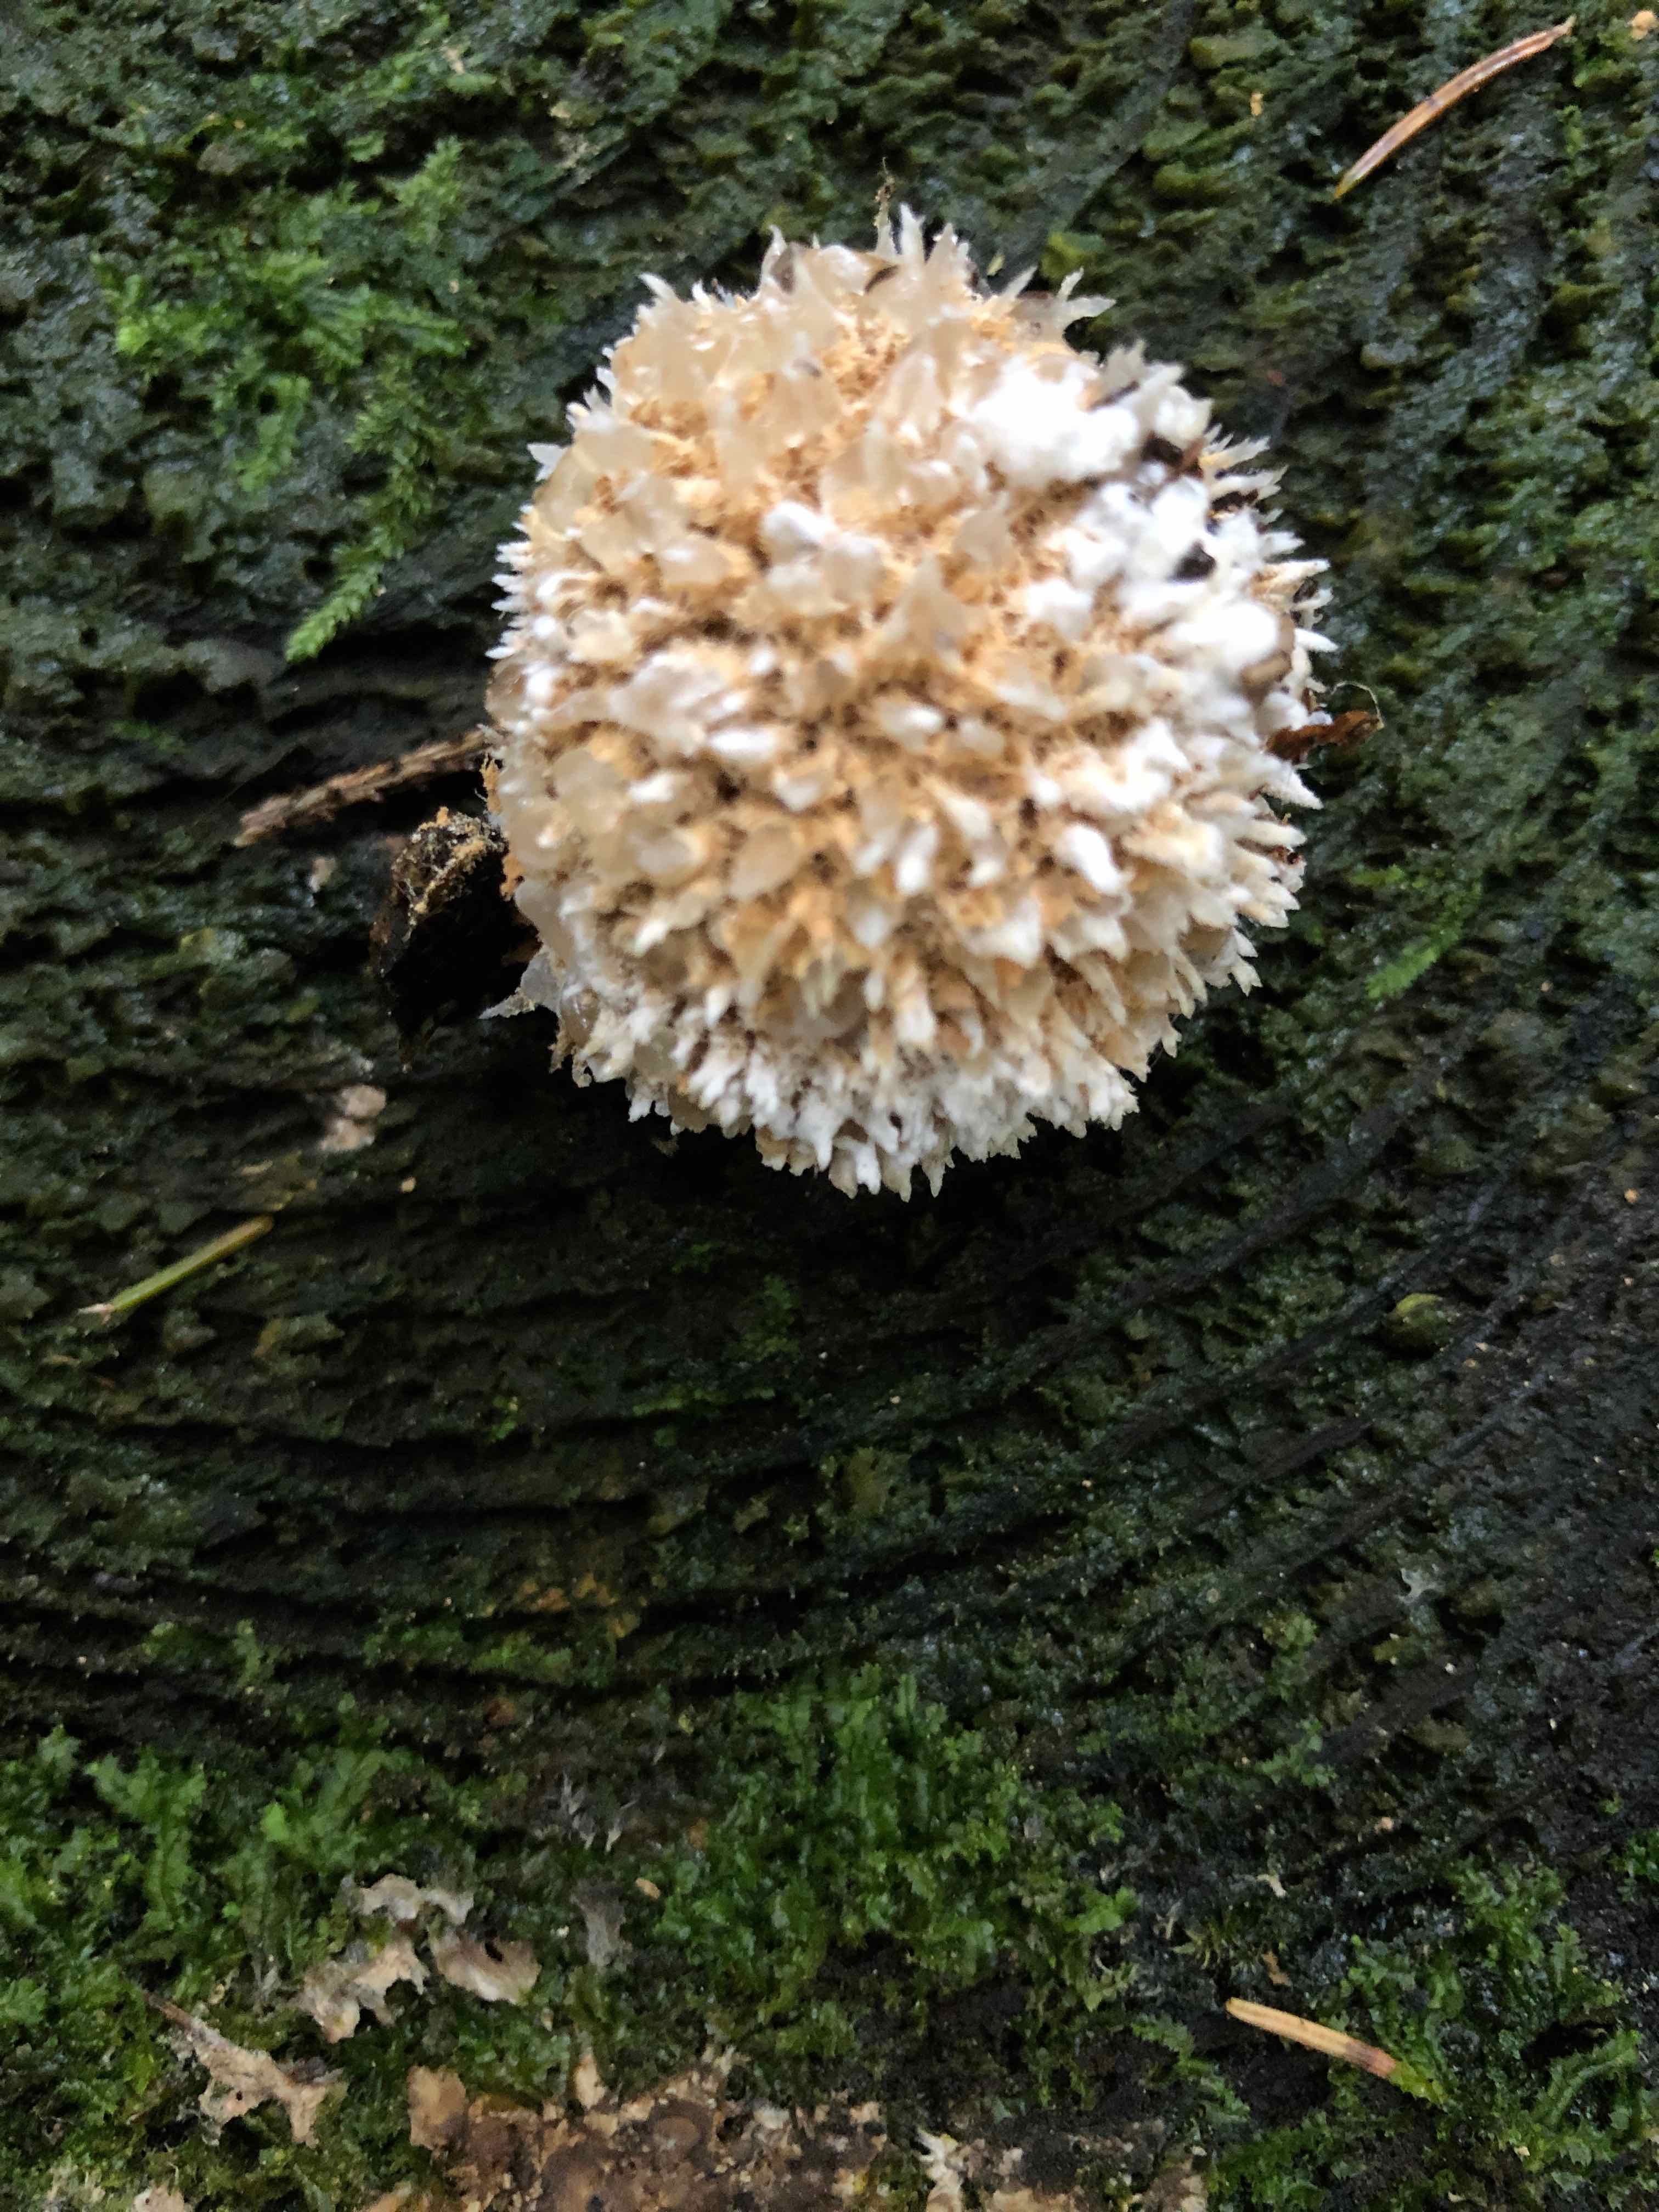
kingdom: Fungi
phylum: Basidiomycota
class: Agaricomycetes
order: Polyporales
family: Dacryobolaceae
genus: Postia
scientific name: Postia ptychogaster
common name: støvende kødporesvamp
